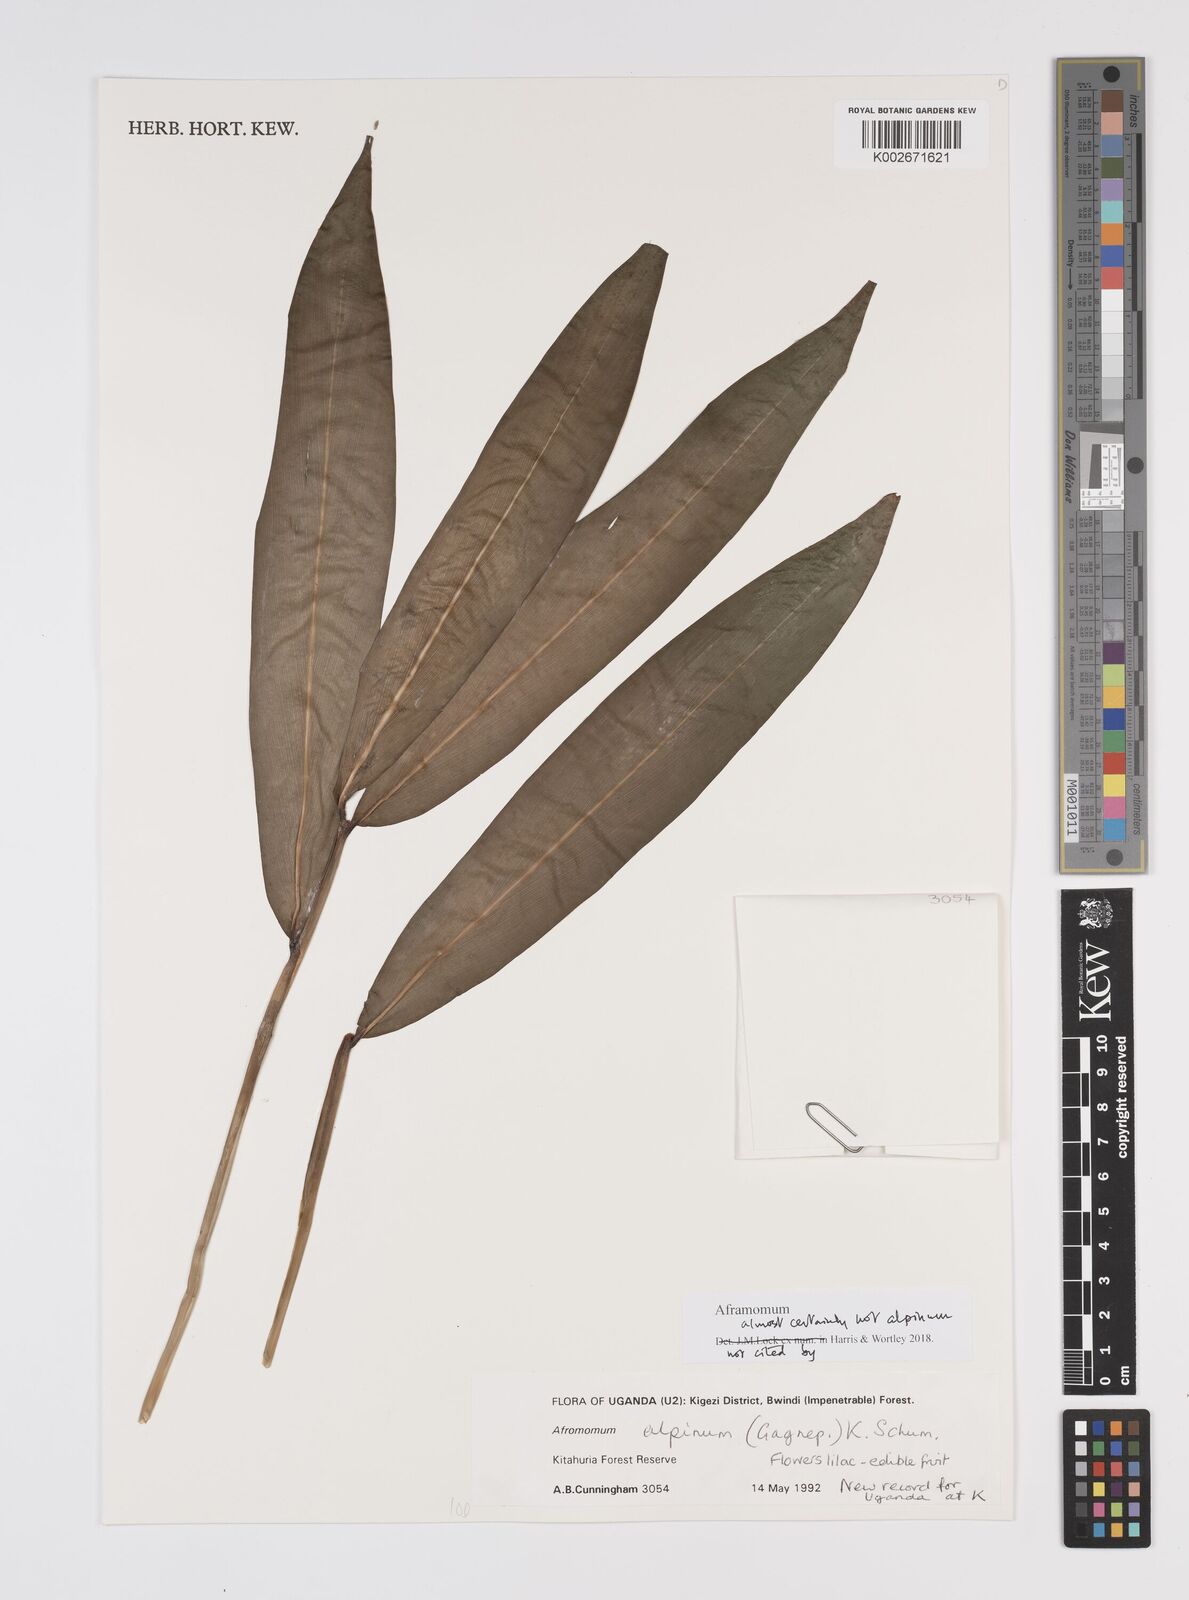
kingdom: Plantae
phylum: Tracheophyta
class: Liliopsida
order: Zingiberales
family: Zingiberaceae
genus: Aframomum
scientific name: Aframomum
